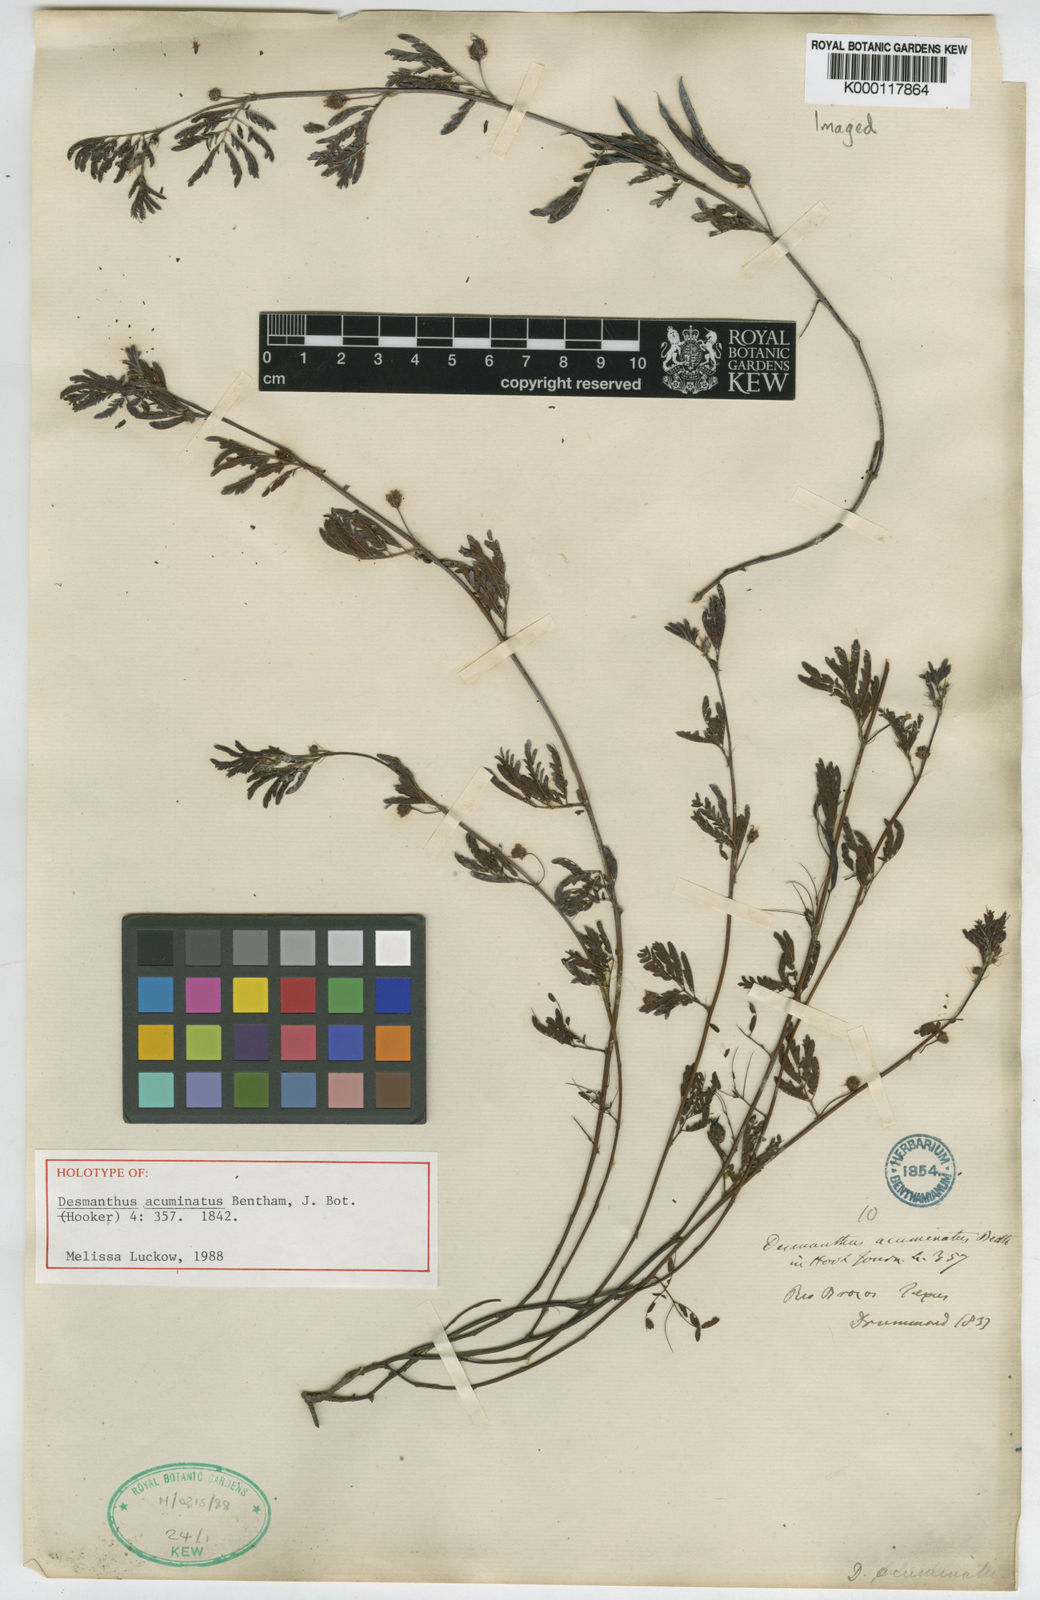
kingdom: Plantae
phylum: Tracheophyta
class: Magnoliopsida
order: Fabales
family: Fabaceae
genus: Desmanthus
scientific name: Desmanthus acuminatus
